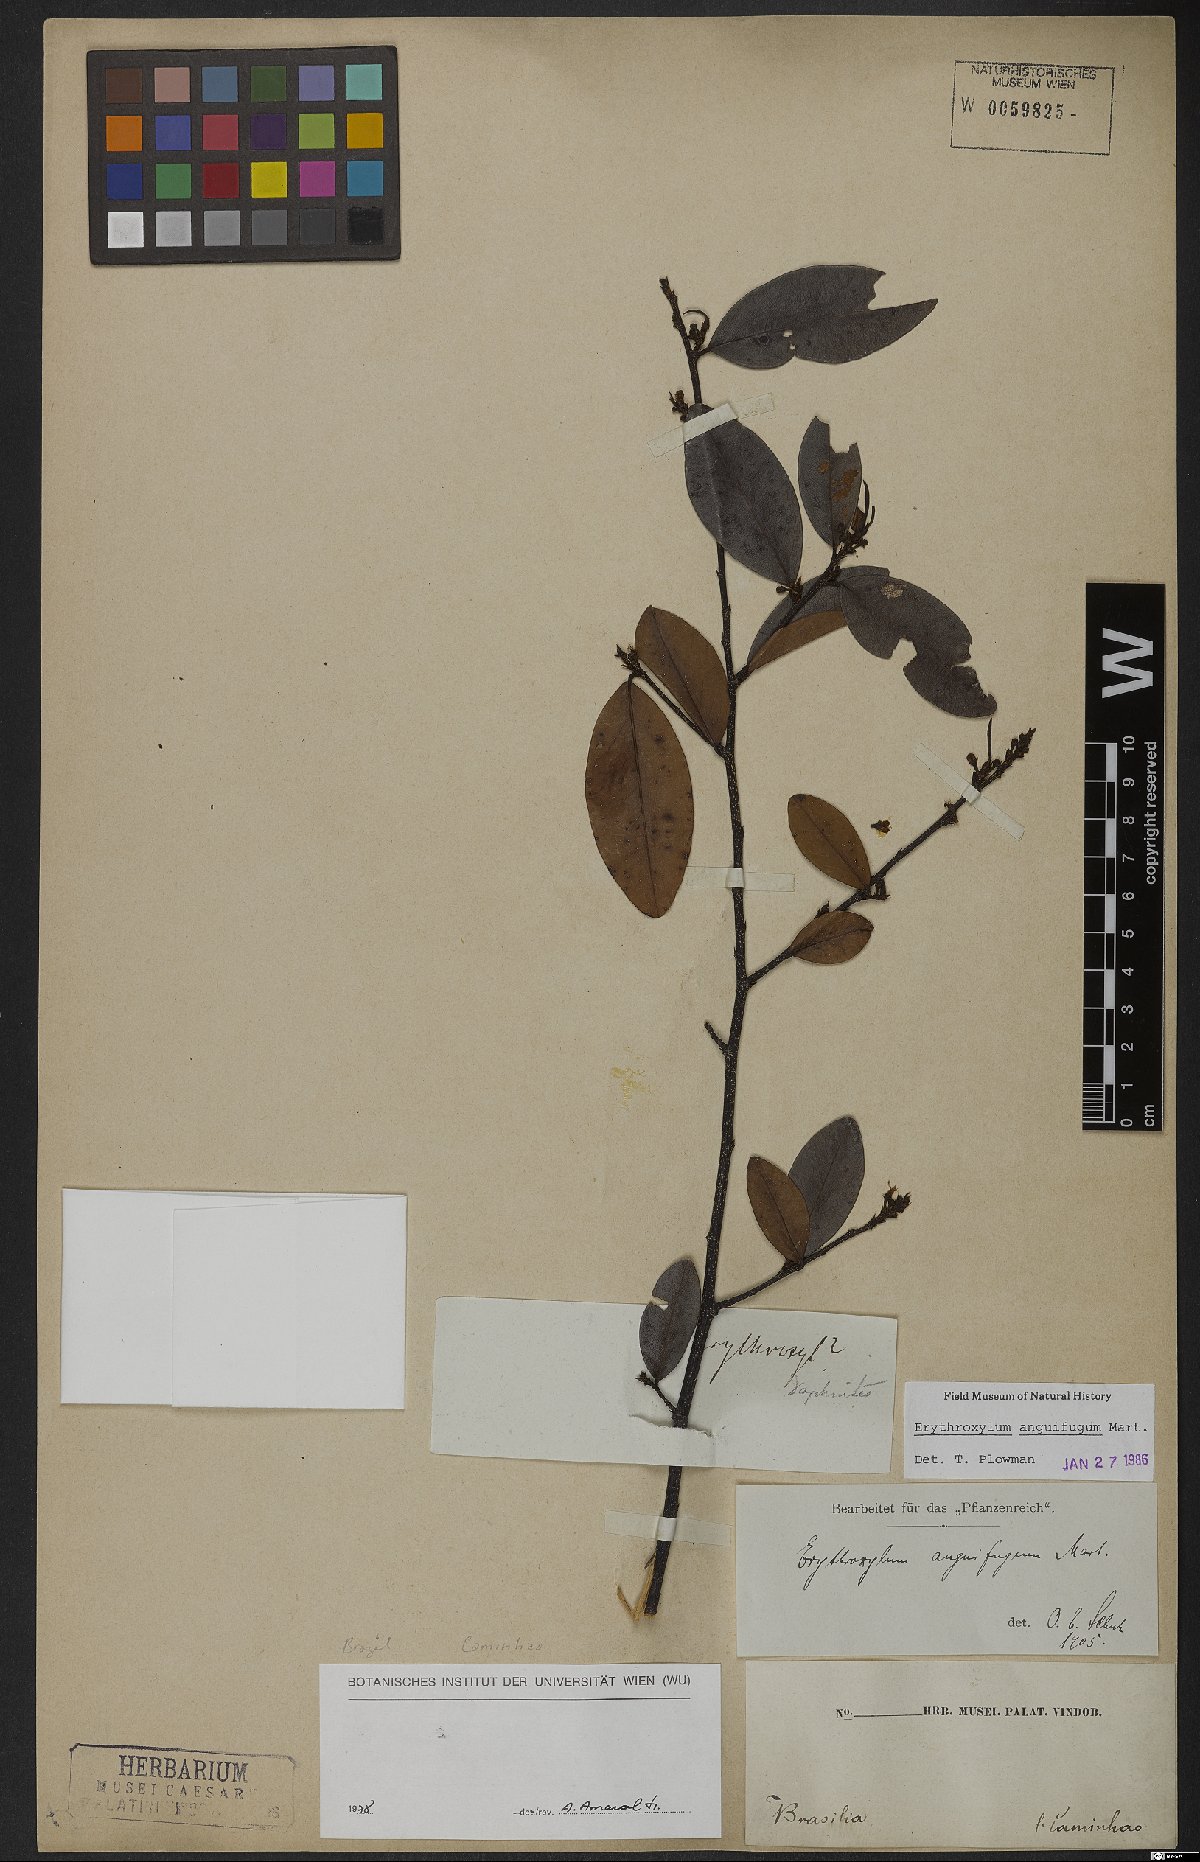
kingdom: Plantae
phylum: Tracheophyta
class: Magnoliopsida
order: Malpighiales
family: Erythroxylaceae
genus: Erythroxylum
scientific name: Erythroxylum anguifugum
